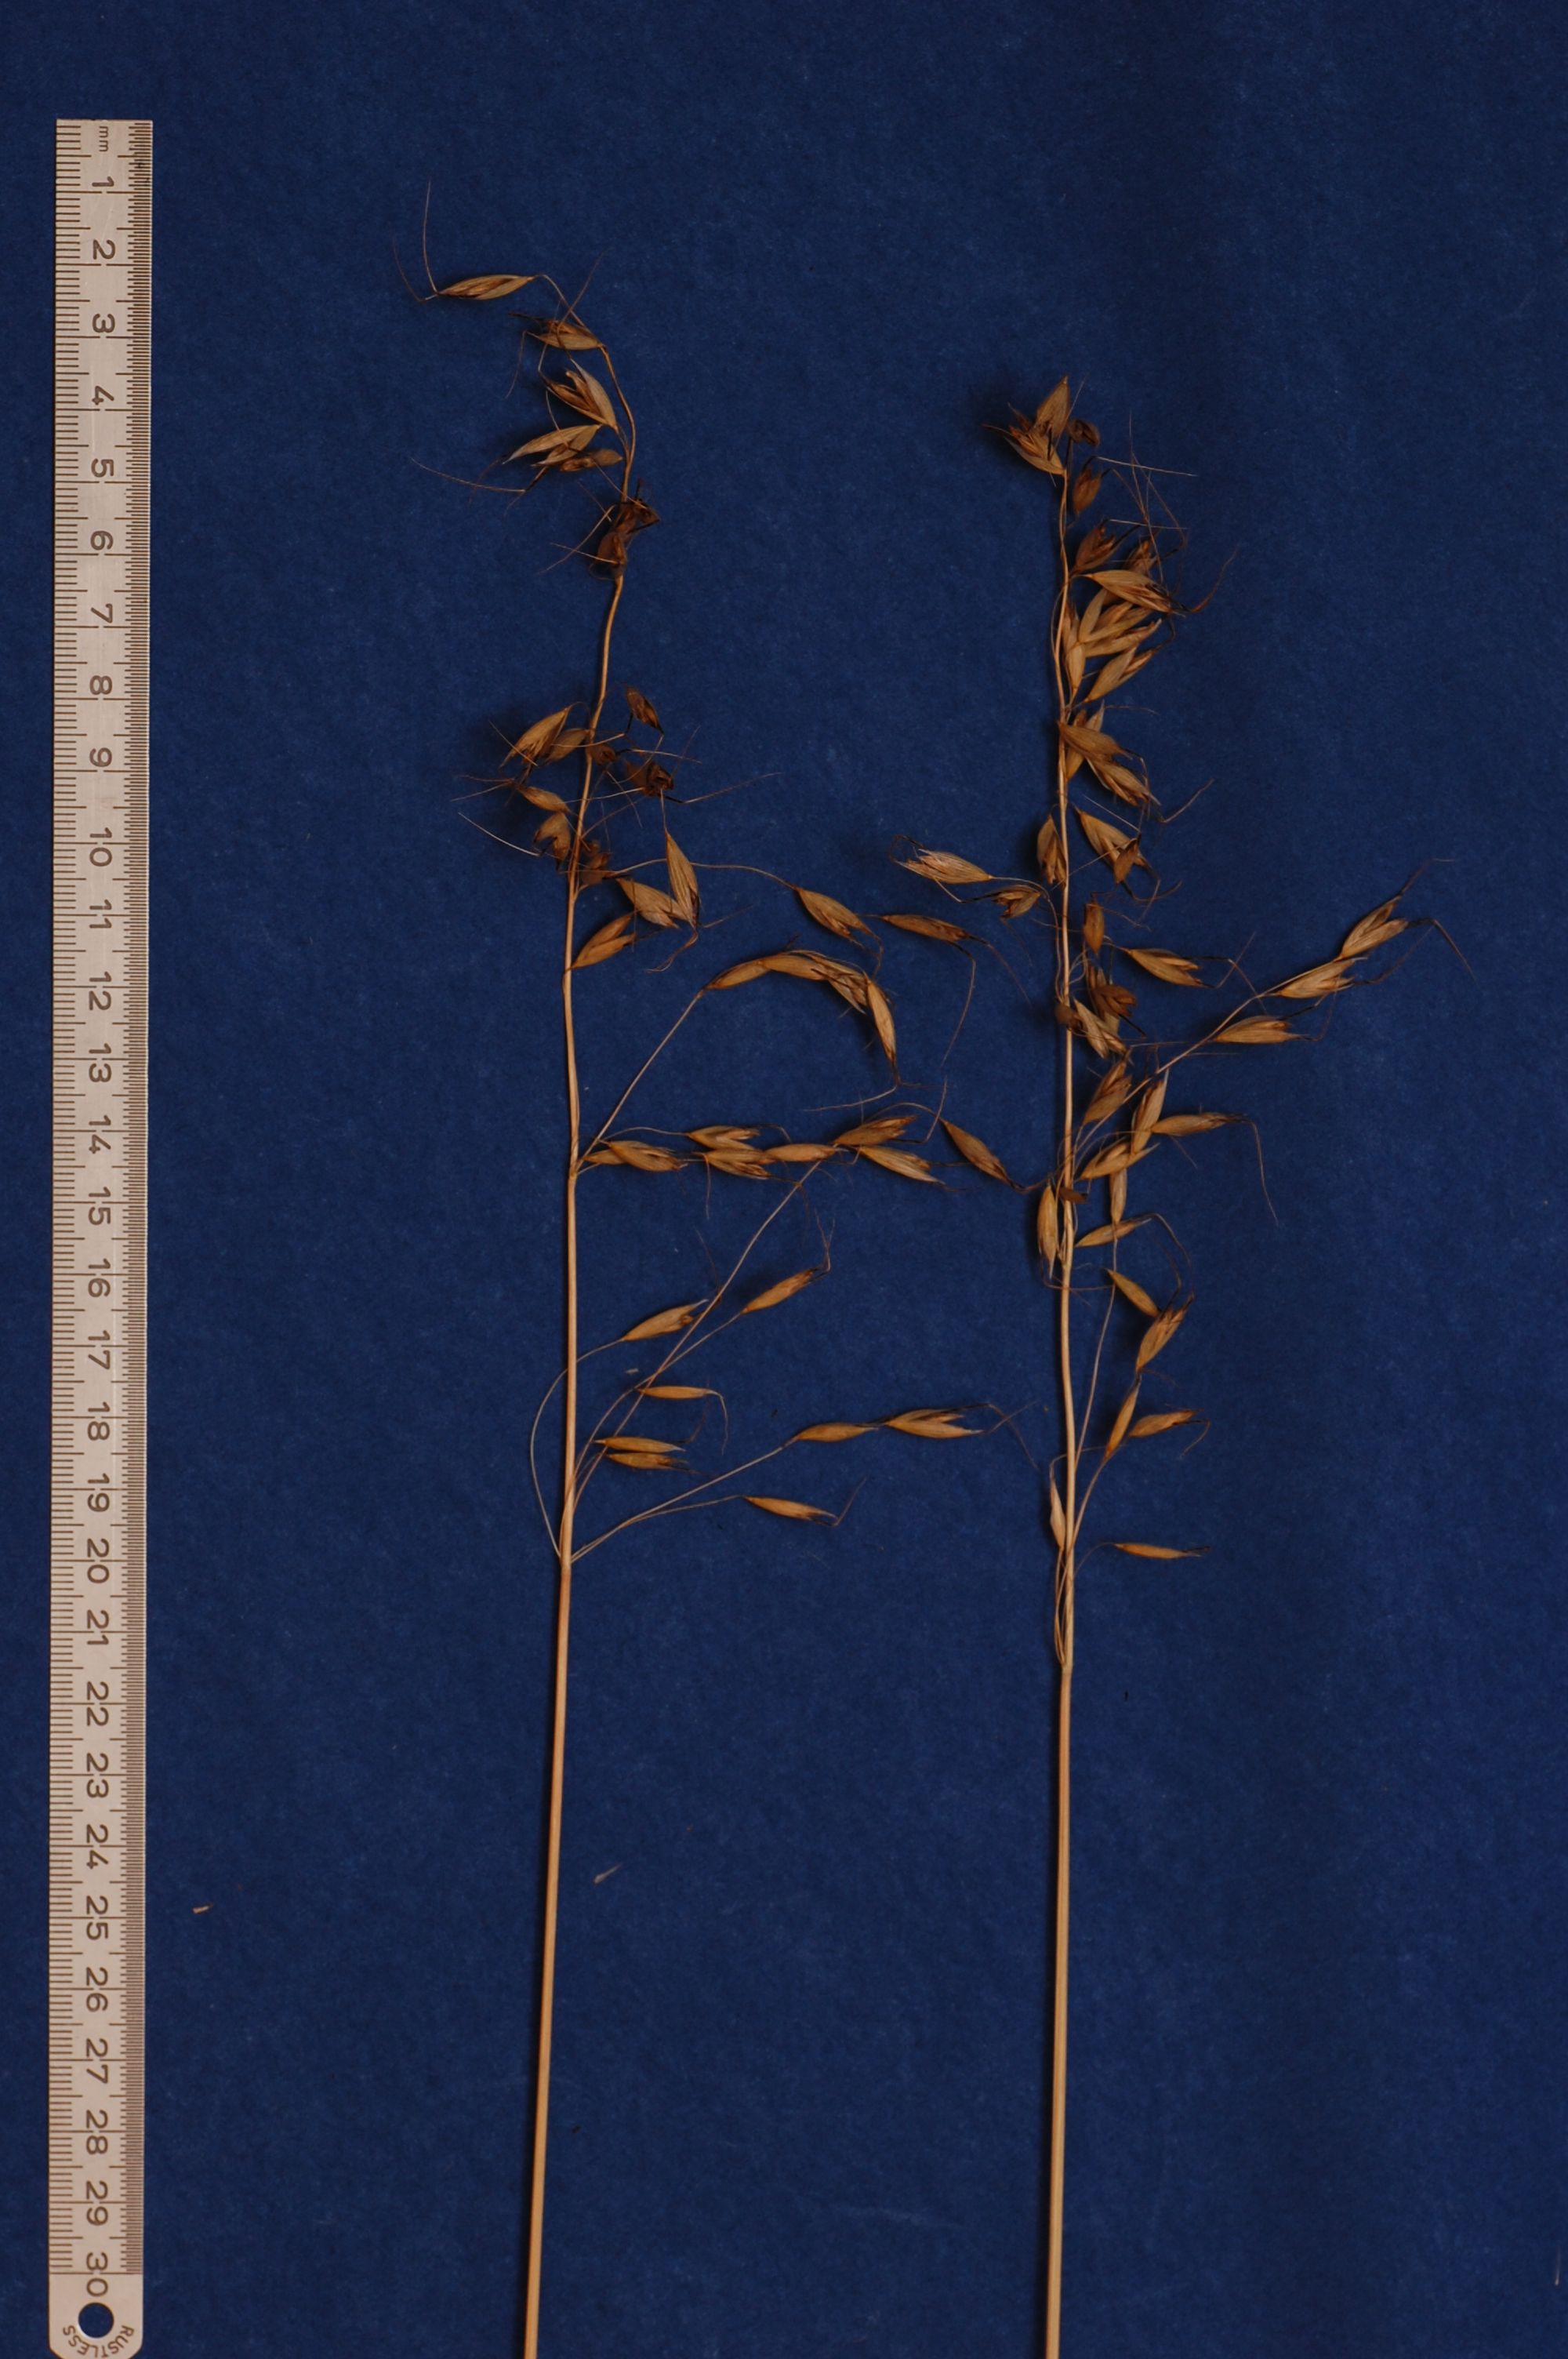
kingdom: Plantae
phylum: Tracheophyta
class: Liliopsida
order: Poales
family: Poaceae
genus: Avena
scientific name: Avena brevis
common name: Short oat
